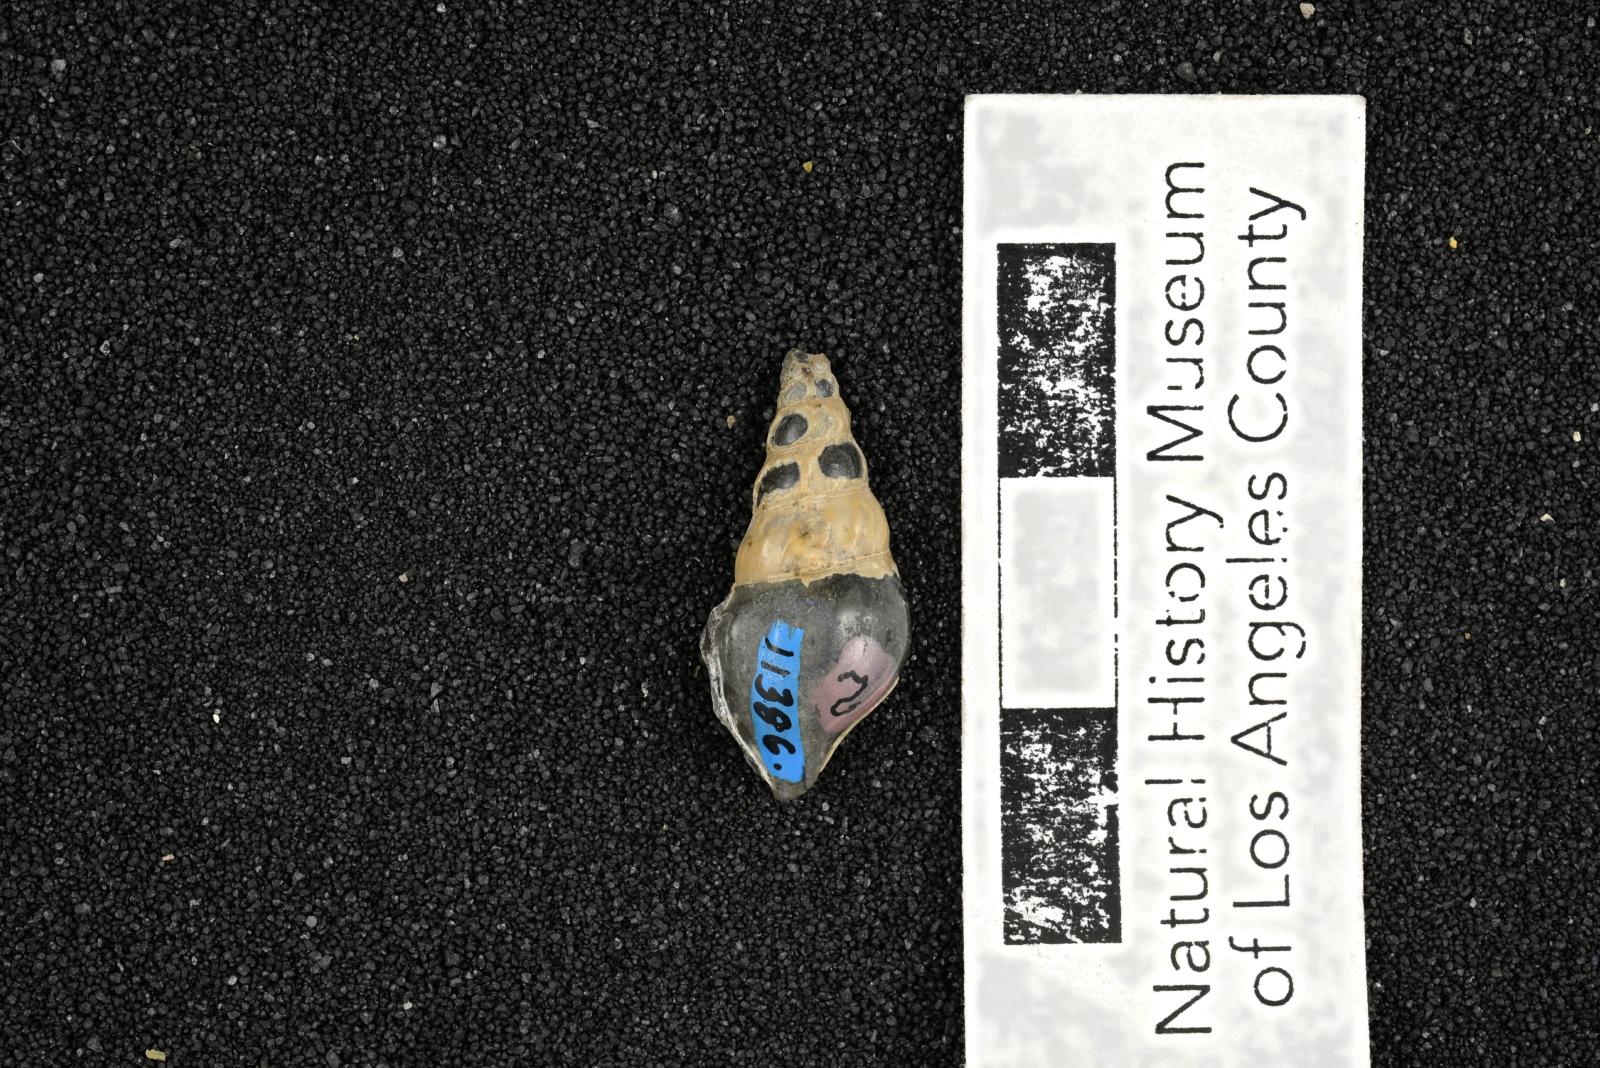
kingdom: Animalia
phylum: Mollusca
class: Gastropoda
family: Potamididae
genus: Echinobathra
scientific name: Echinobathra Cerithium austinense
